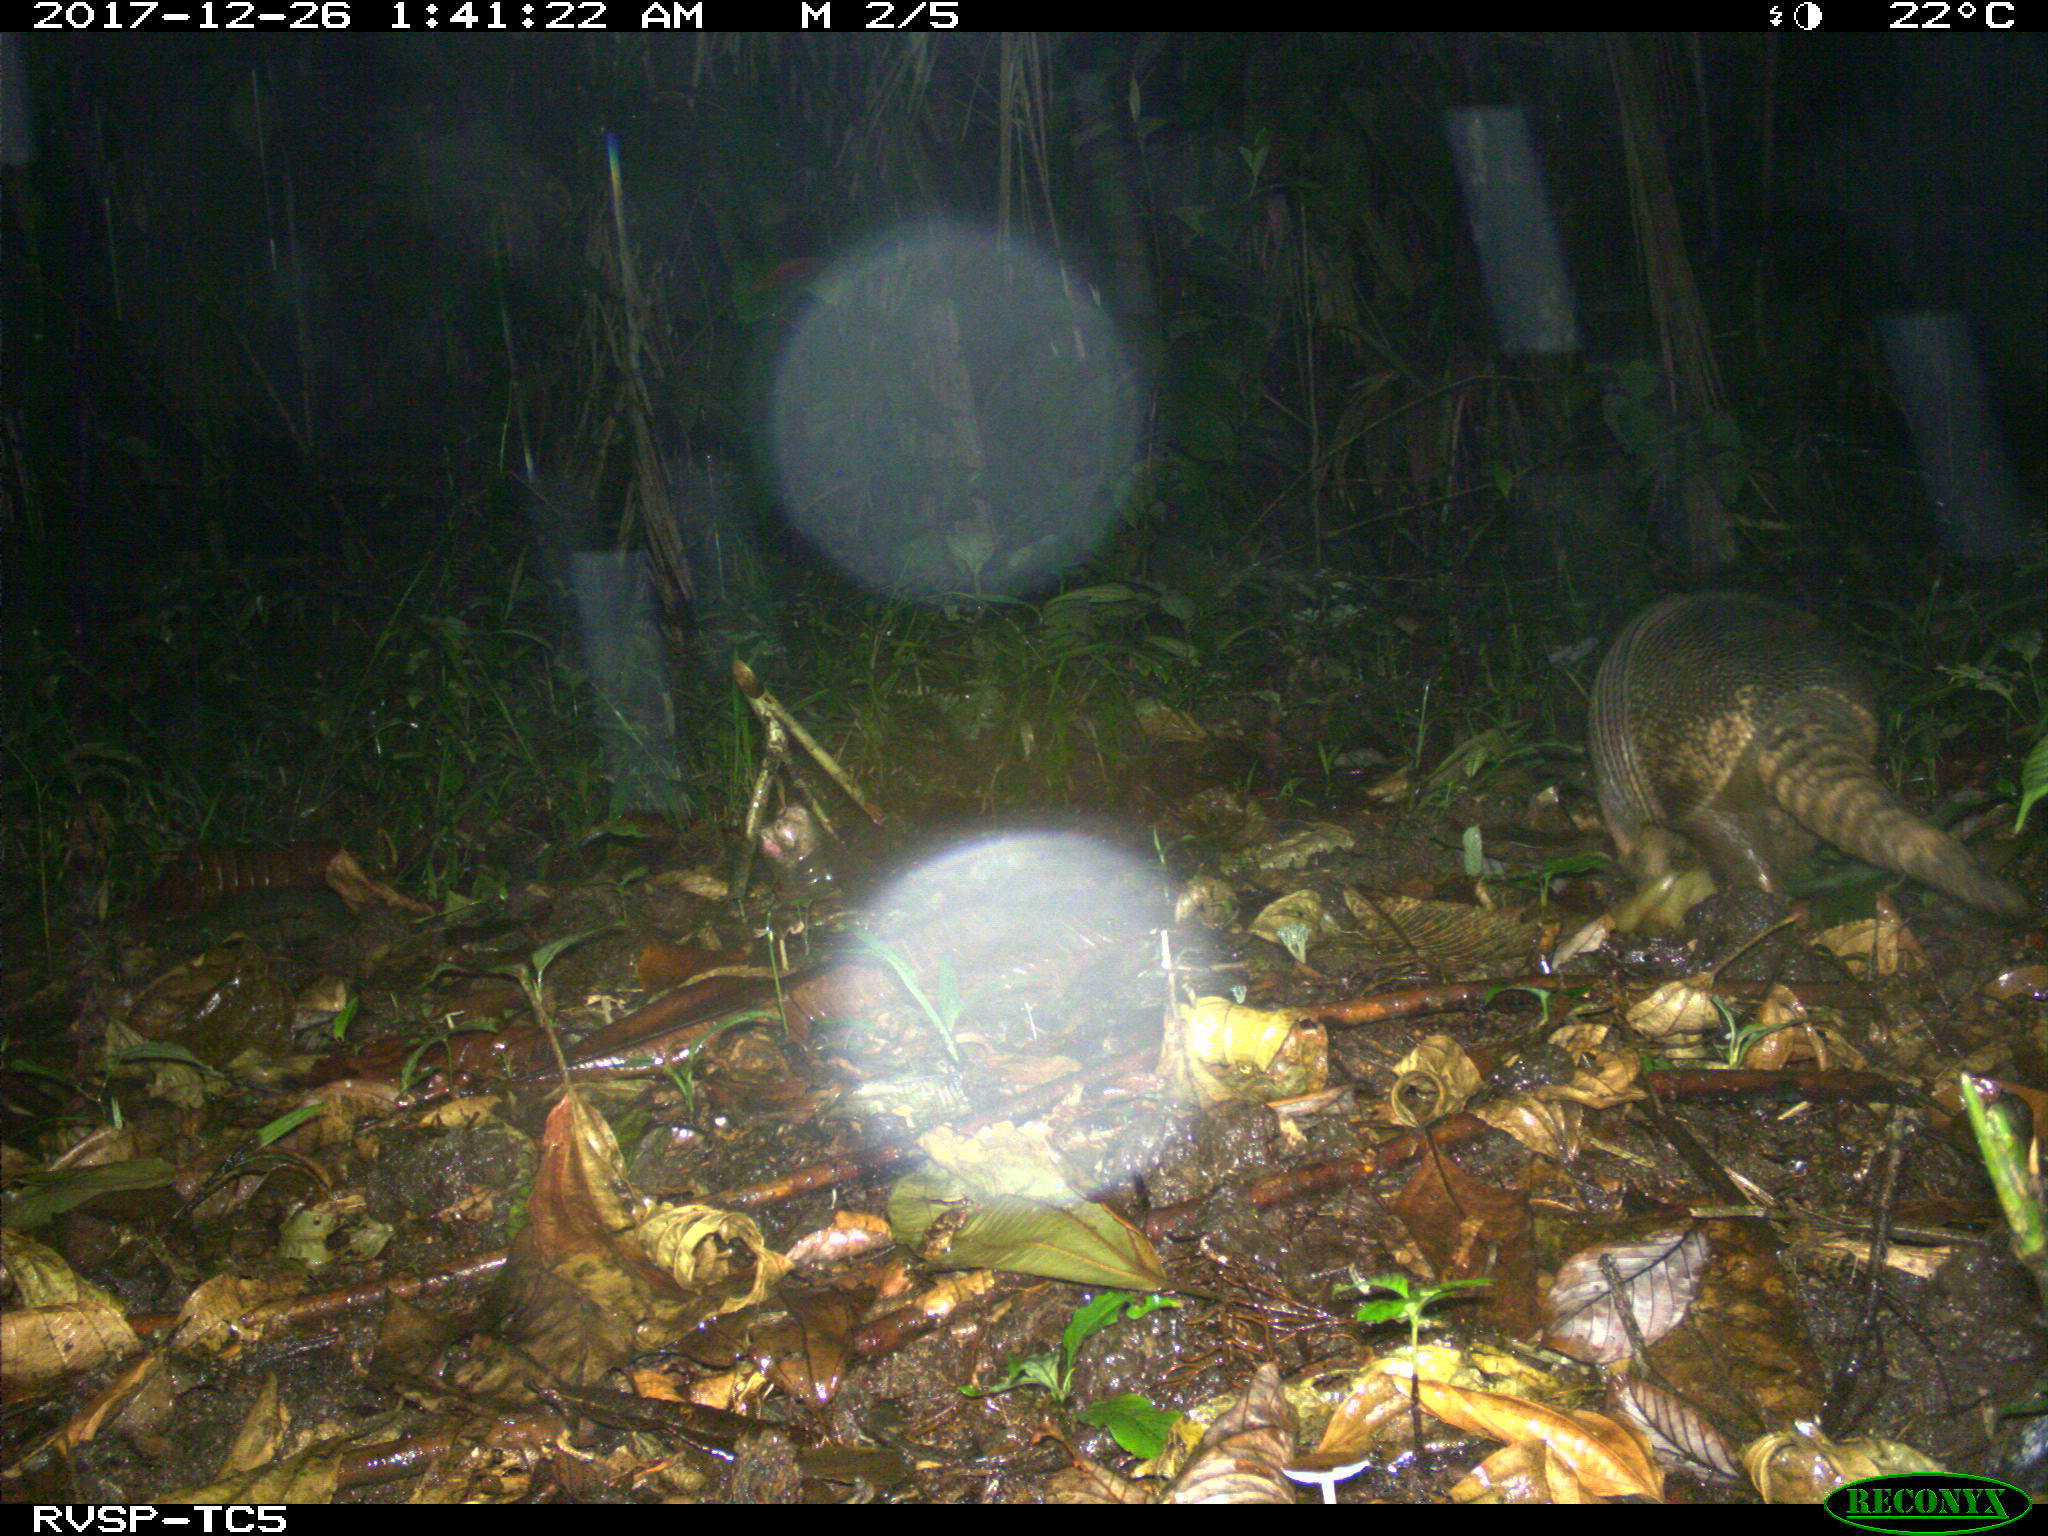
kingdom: Animalia
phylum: Chordata
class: Mammalia
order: Cingulata
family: Dasypodidae
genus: Dasypus
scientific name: Dasypus novemcinctus
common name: Nine-banded armadillo
